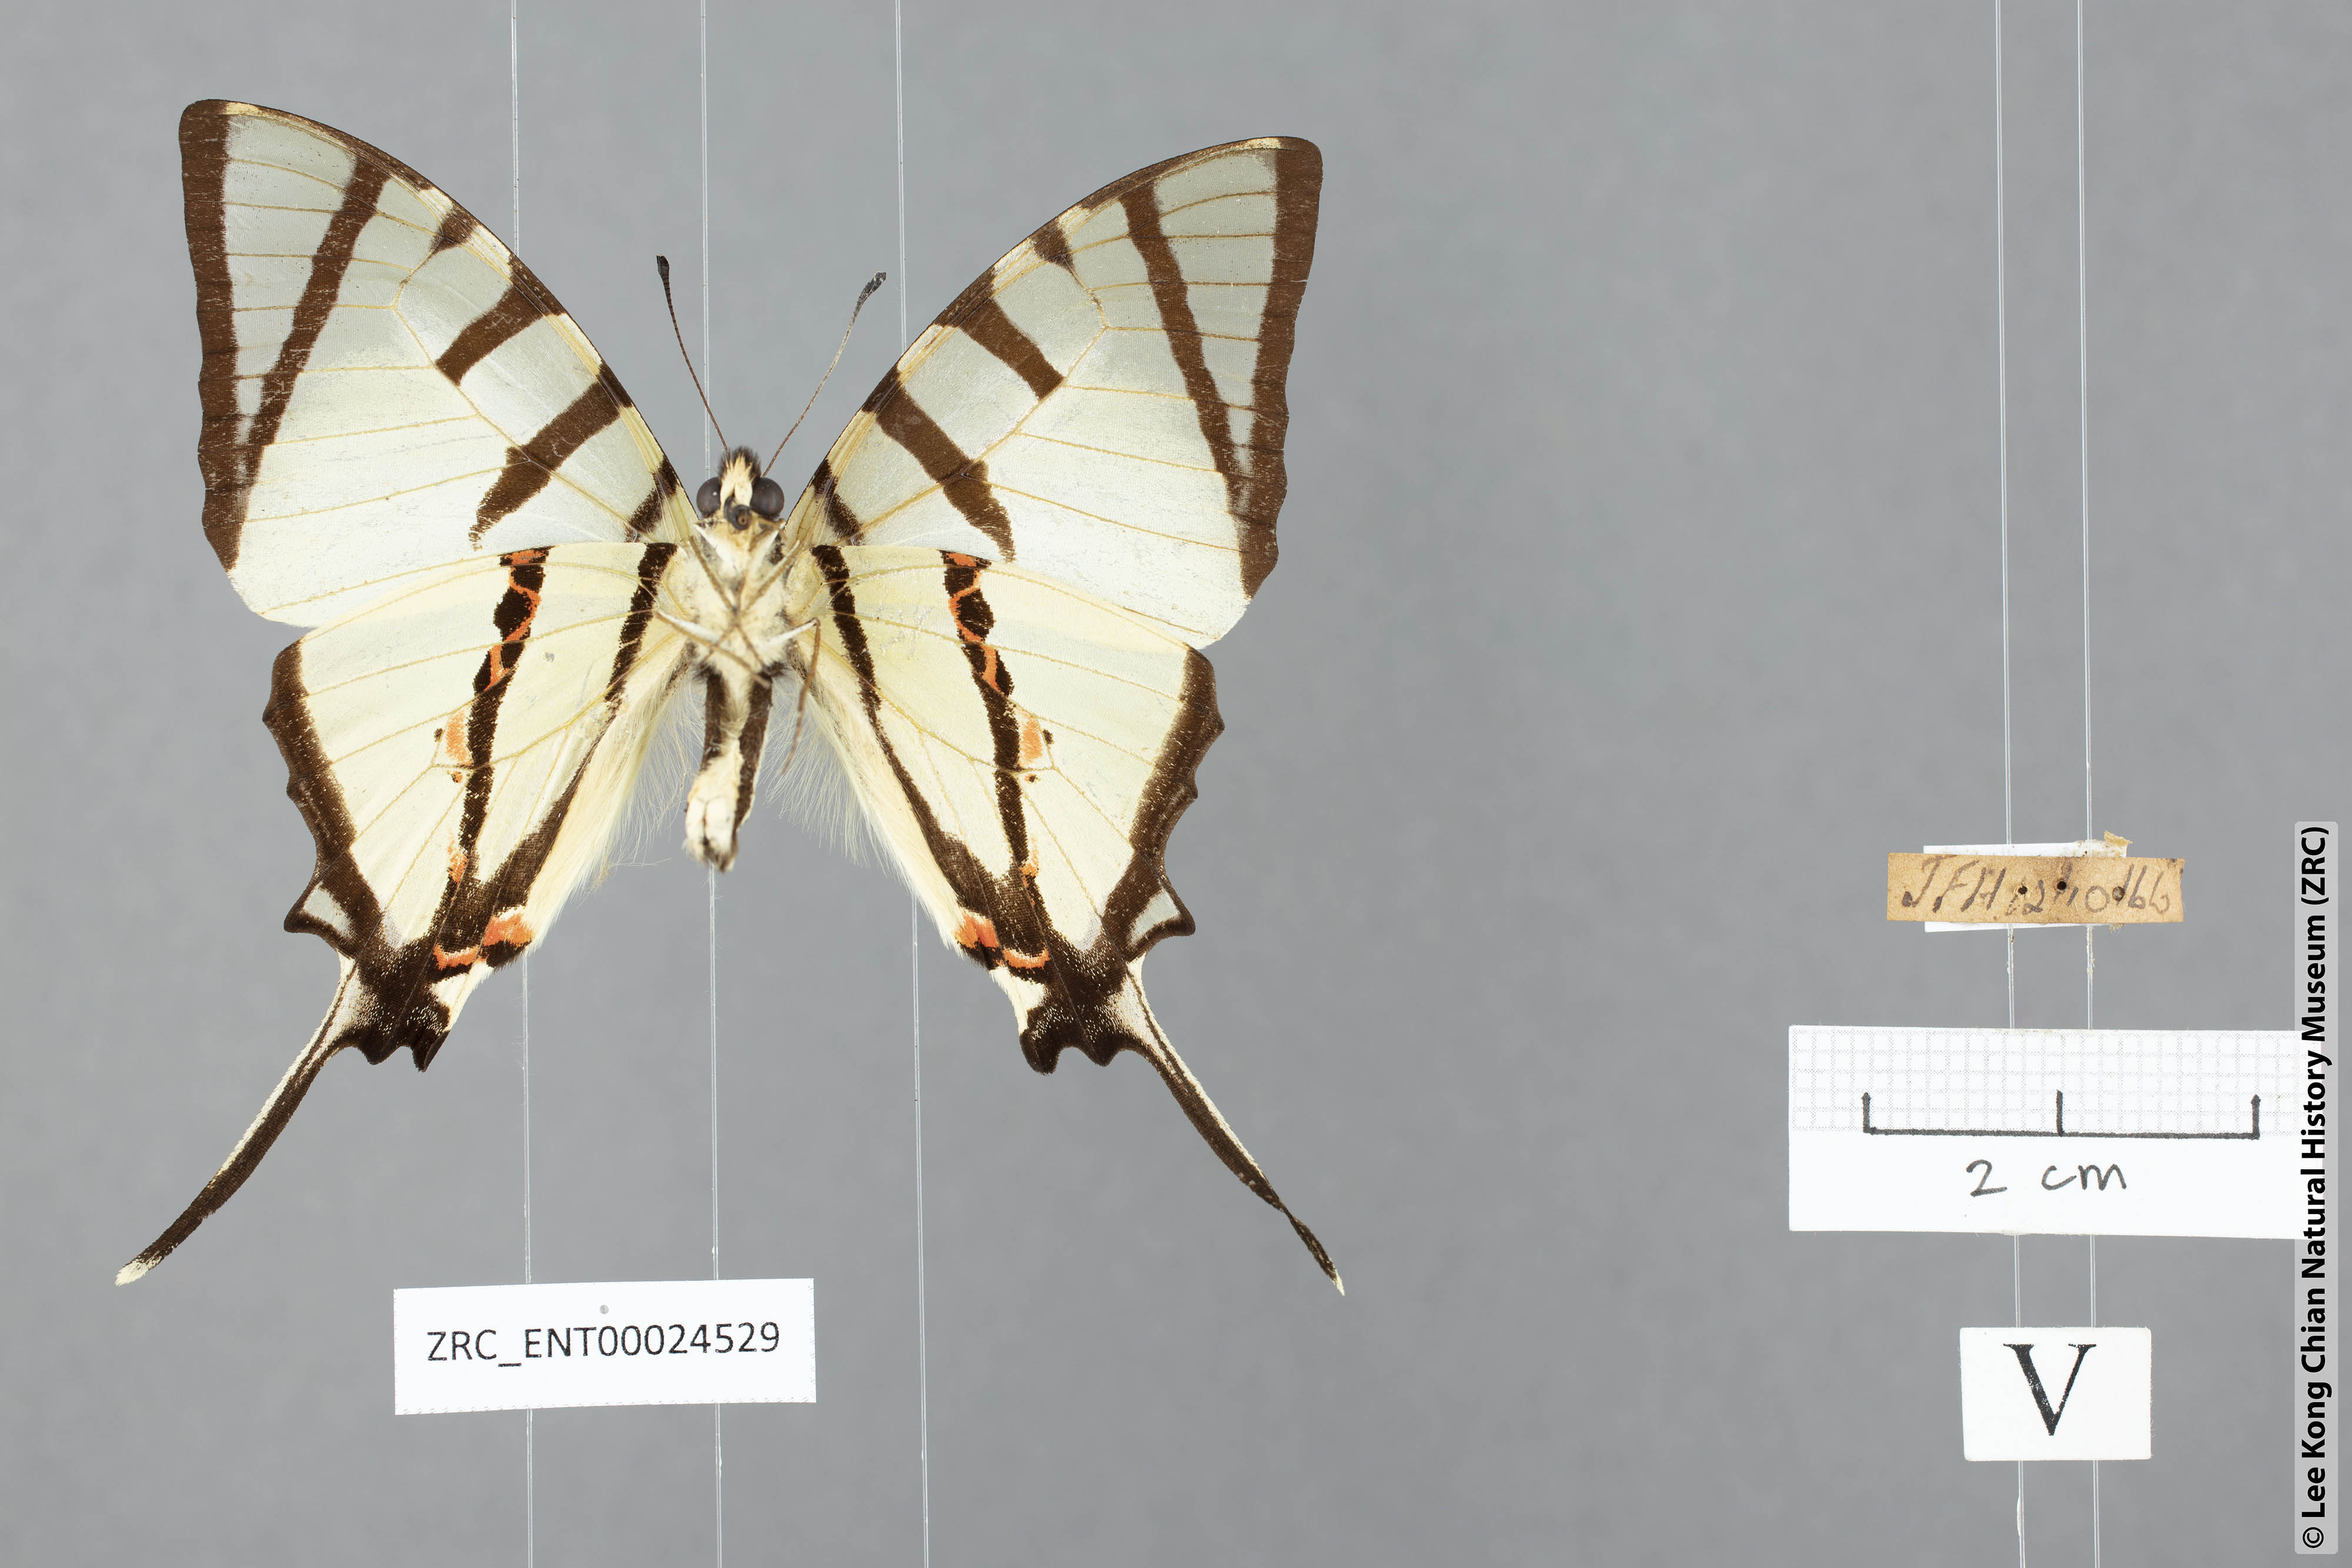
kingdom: Animalia
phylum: Arthropoda
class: Insecta
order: Lepidoptera
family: Papilionidae
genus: Graphium
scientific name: Graphium agetes
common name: Fourbar swordtail
